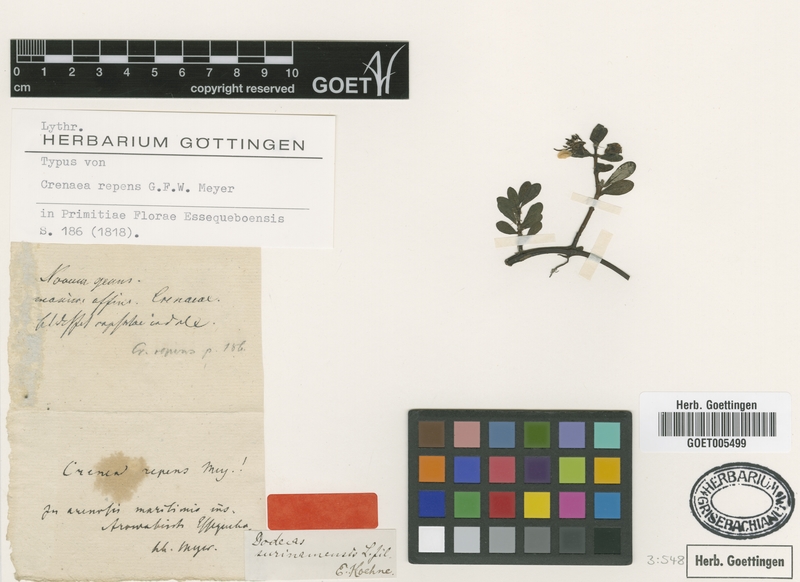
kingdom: Plantae
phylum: Tracheophyta
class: Magnoliopsida
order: Myrtales
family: Lythraceae
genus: Ammannia
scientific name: Ammannia maritima
